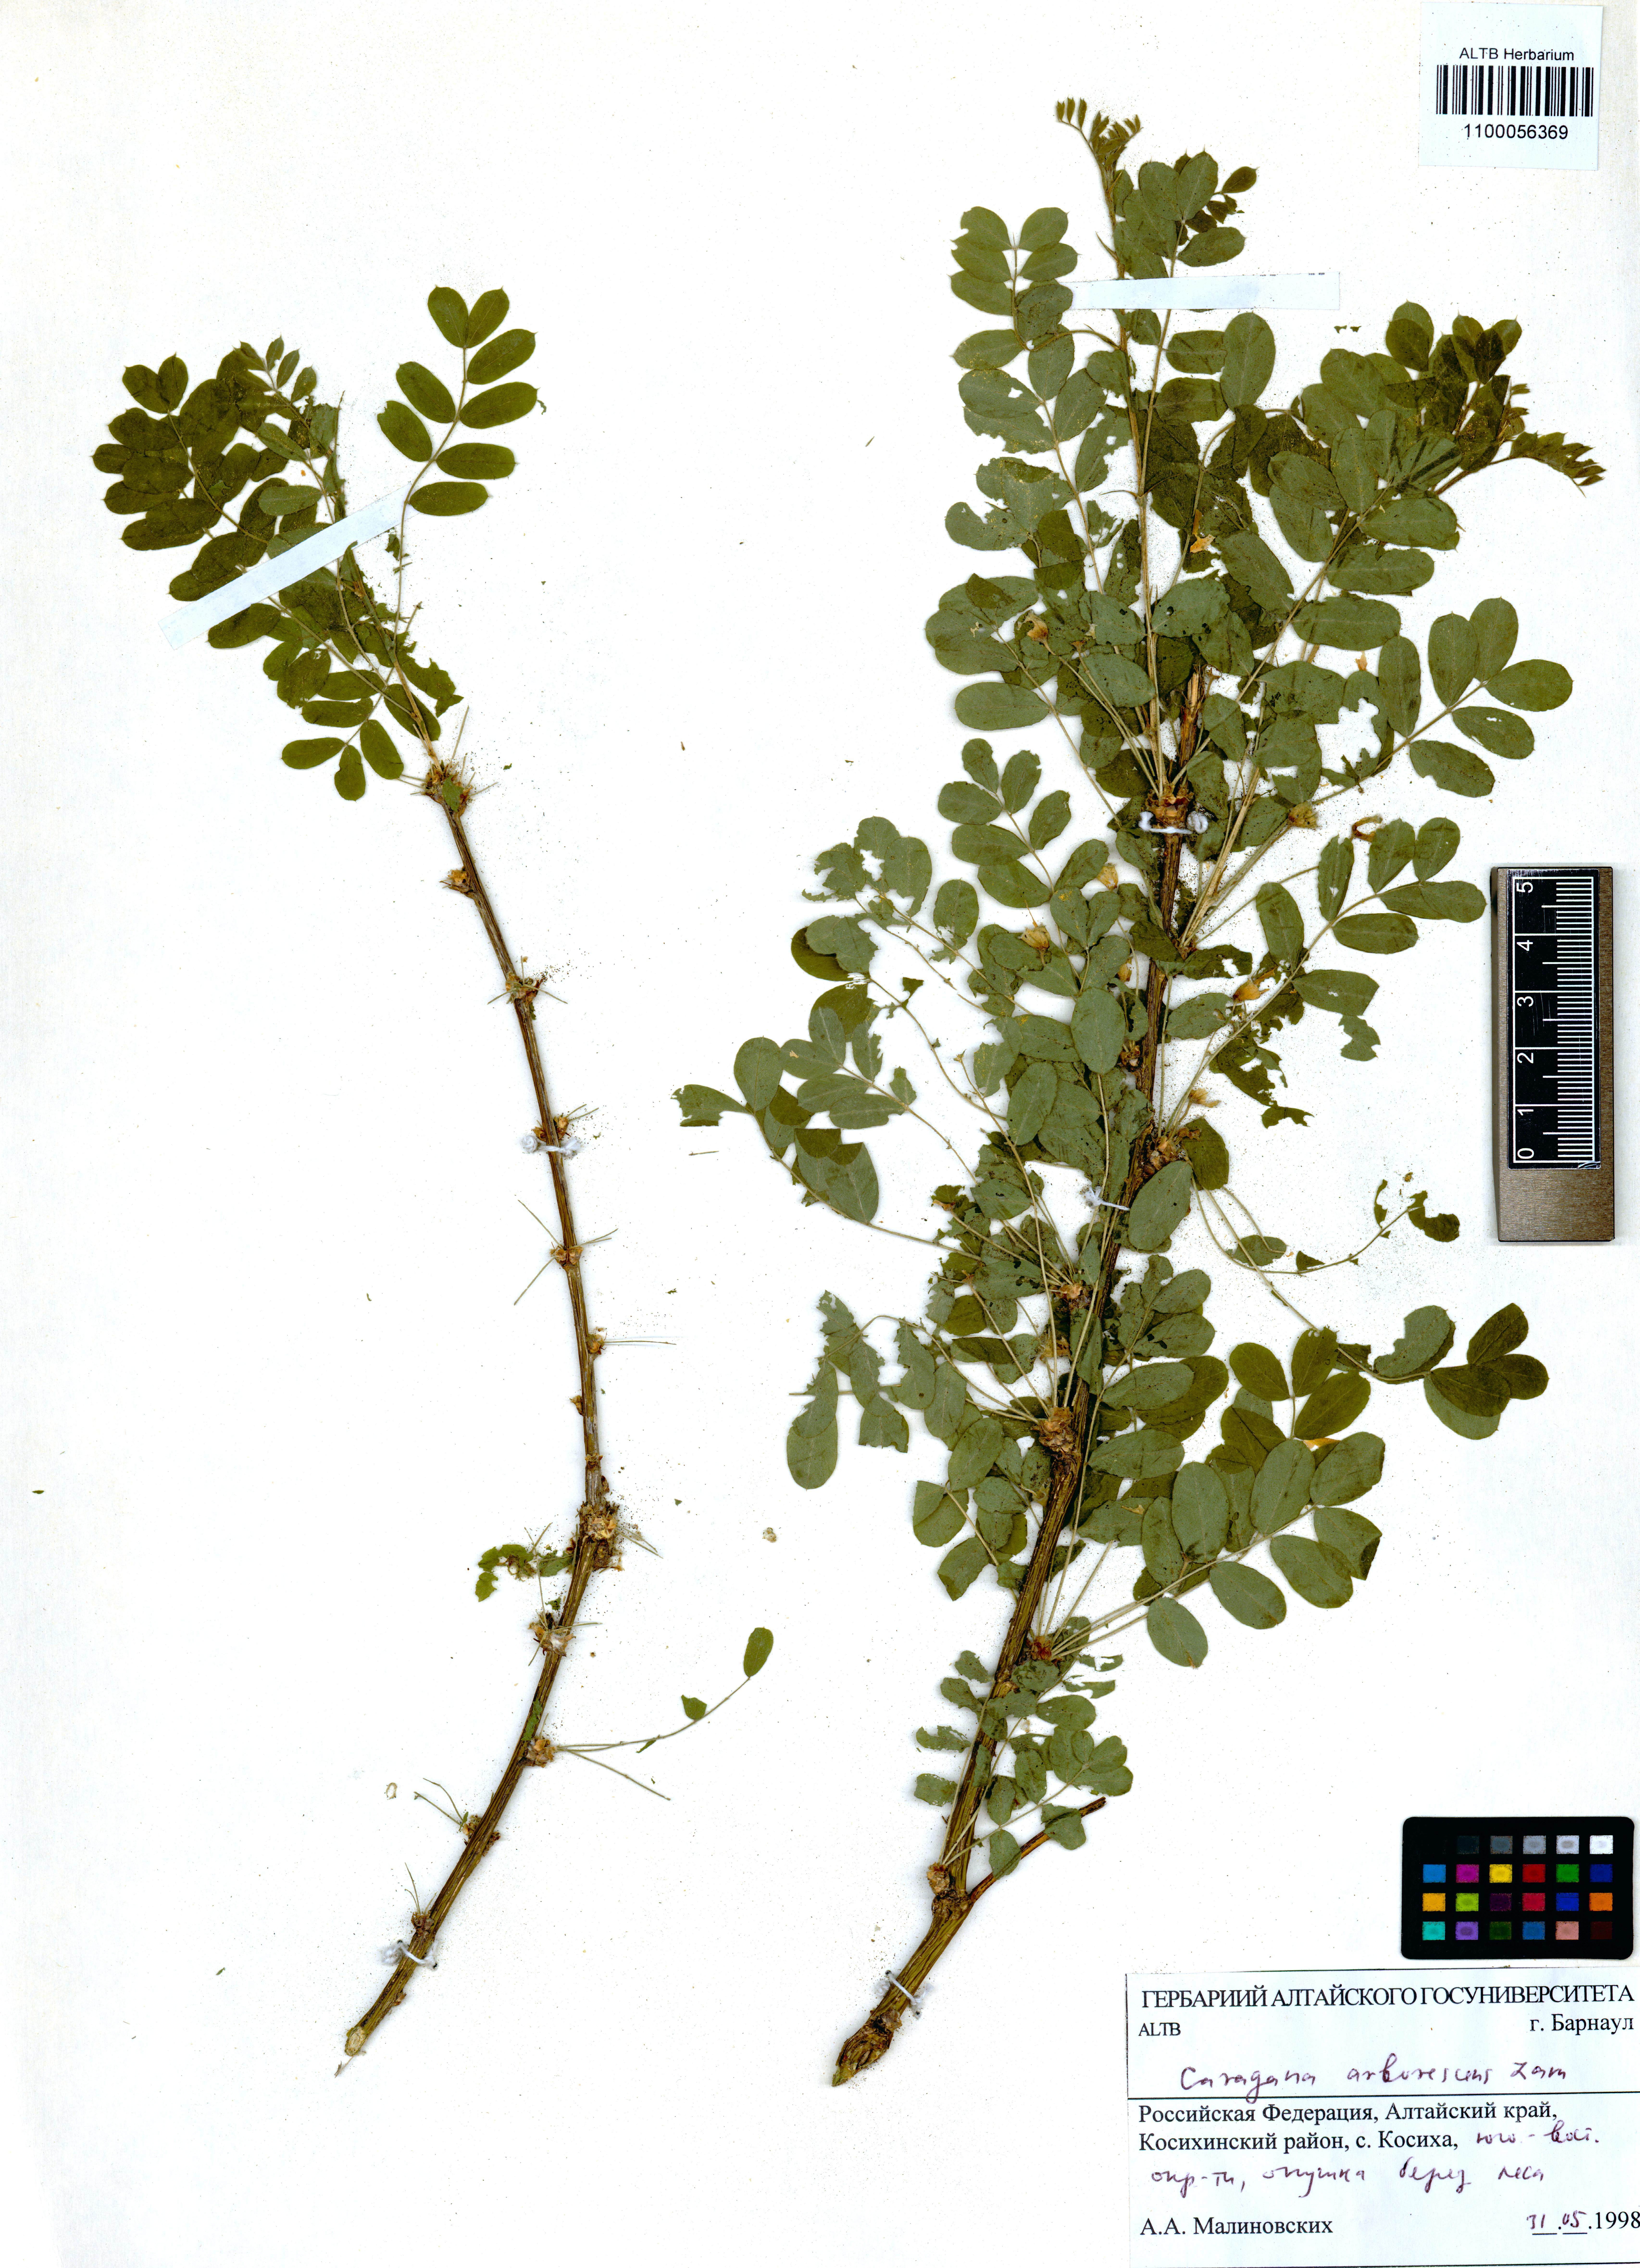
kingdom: Plantae
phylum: Tracheophyta
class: Magnoliopsida
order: Fabales
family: Fabaceae
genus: Caragana
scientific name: Caragana arborescens
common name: Siberian peashrub
